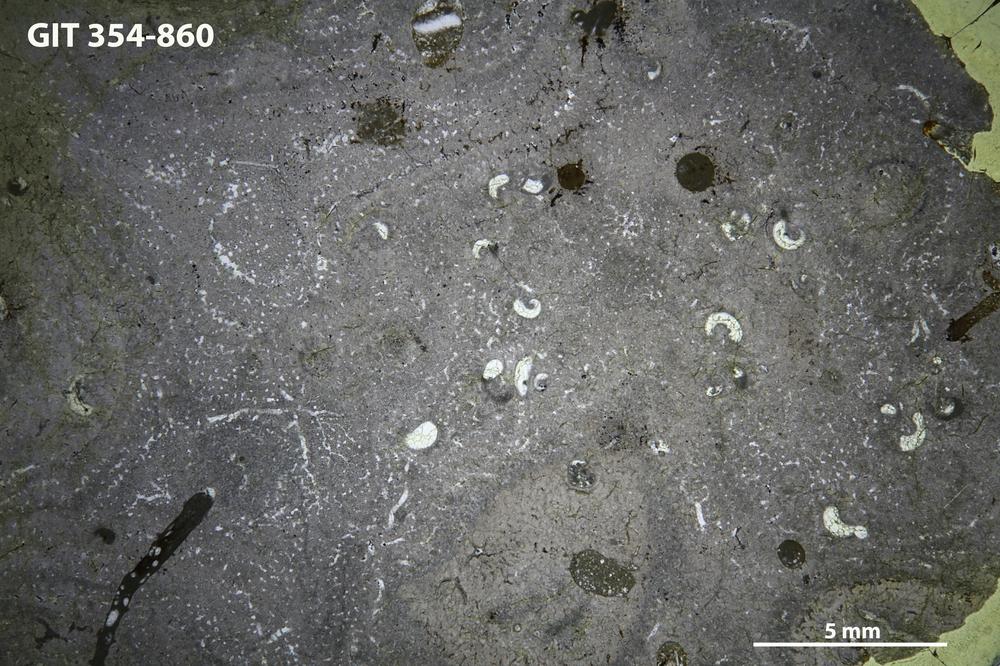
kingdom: Animalia
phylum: Porifera
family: Stromatoporidae
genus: Parallelostroma
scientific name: Parallelostroma
